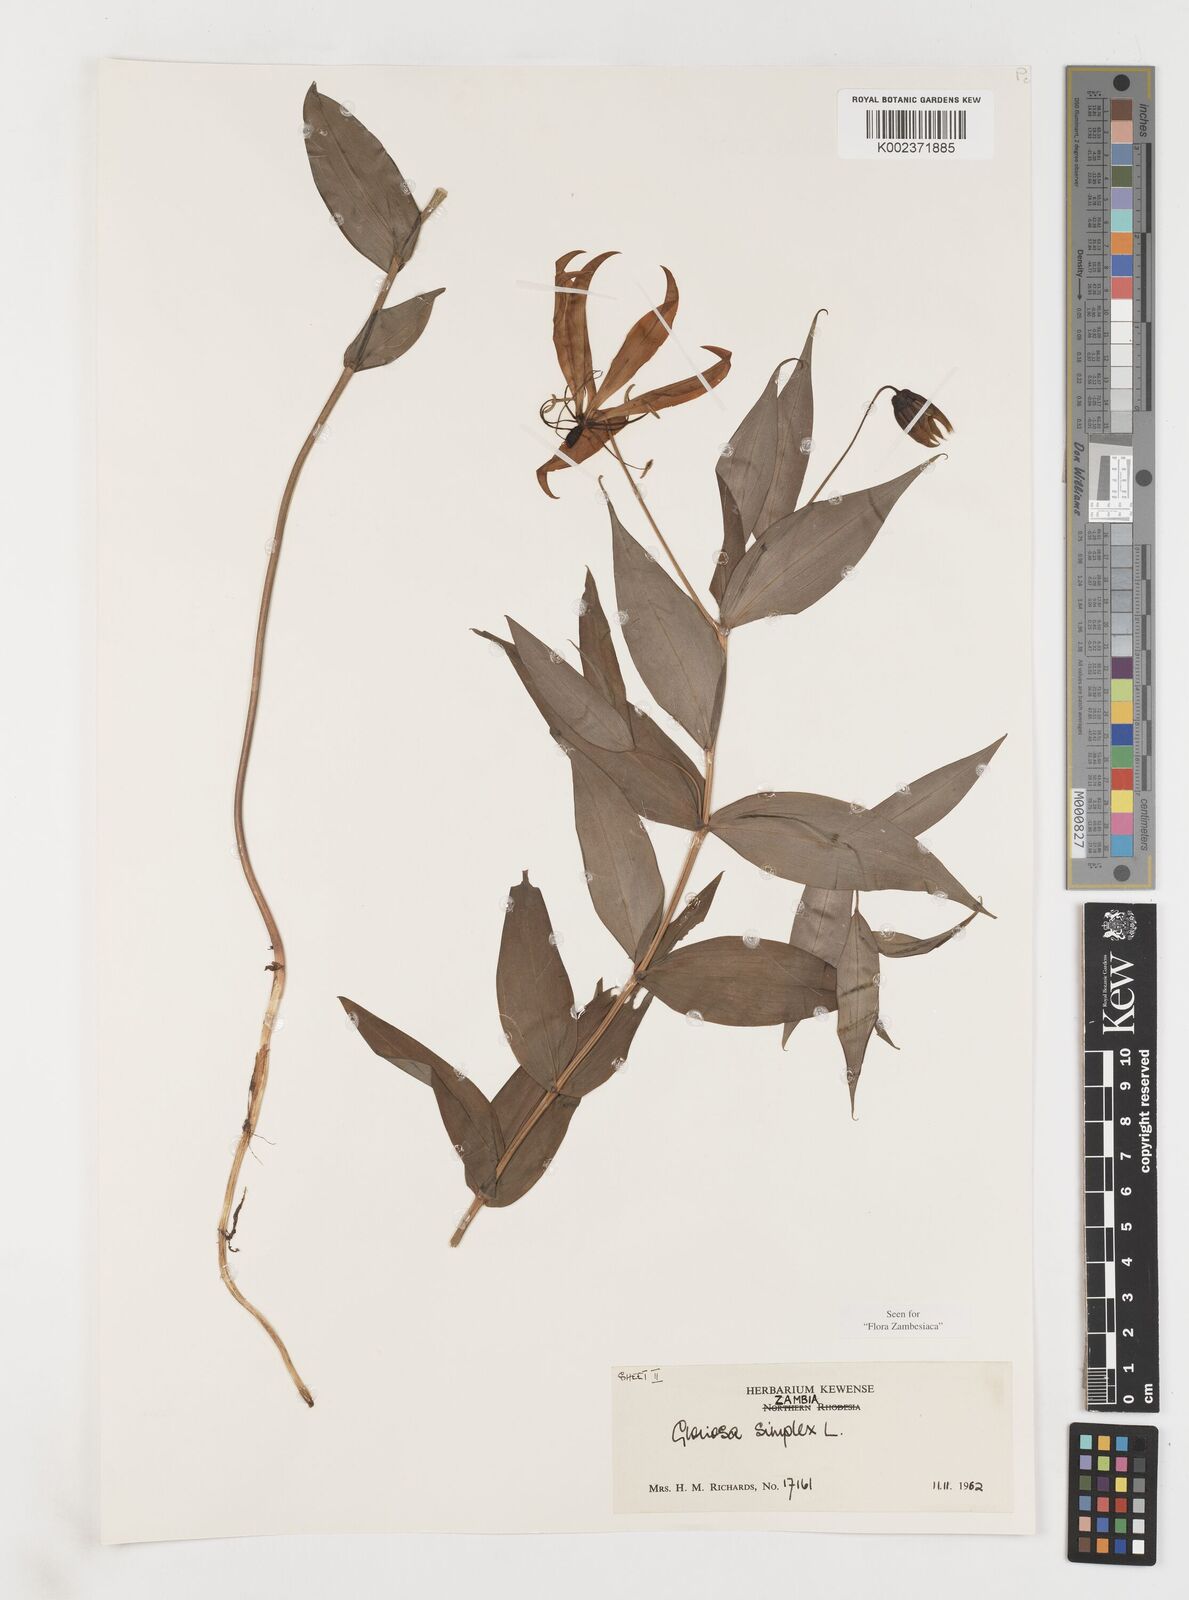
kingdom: Plantae
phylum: Tracheophyta
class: Liliopsida
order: Liliales
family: Colchicaceae
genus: Gloriosa
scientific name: Gloriosa simplex
